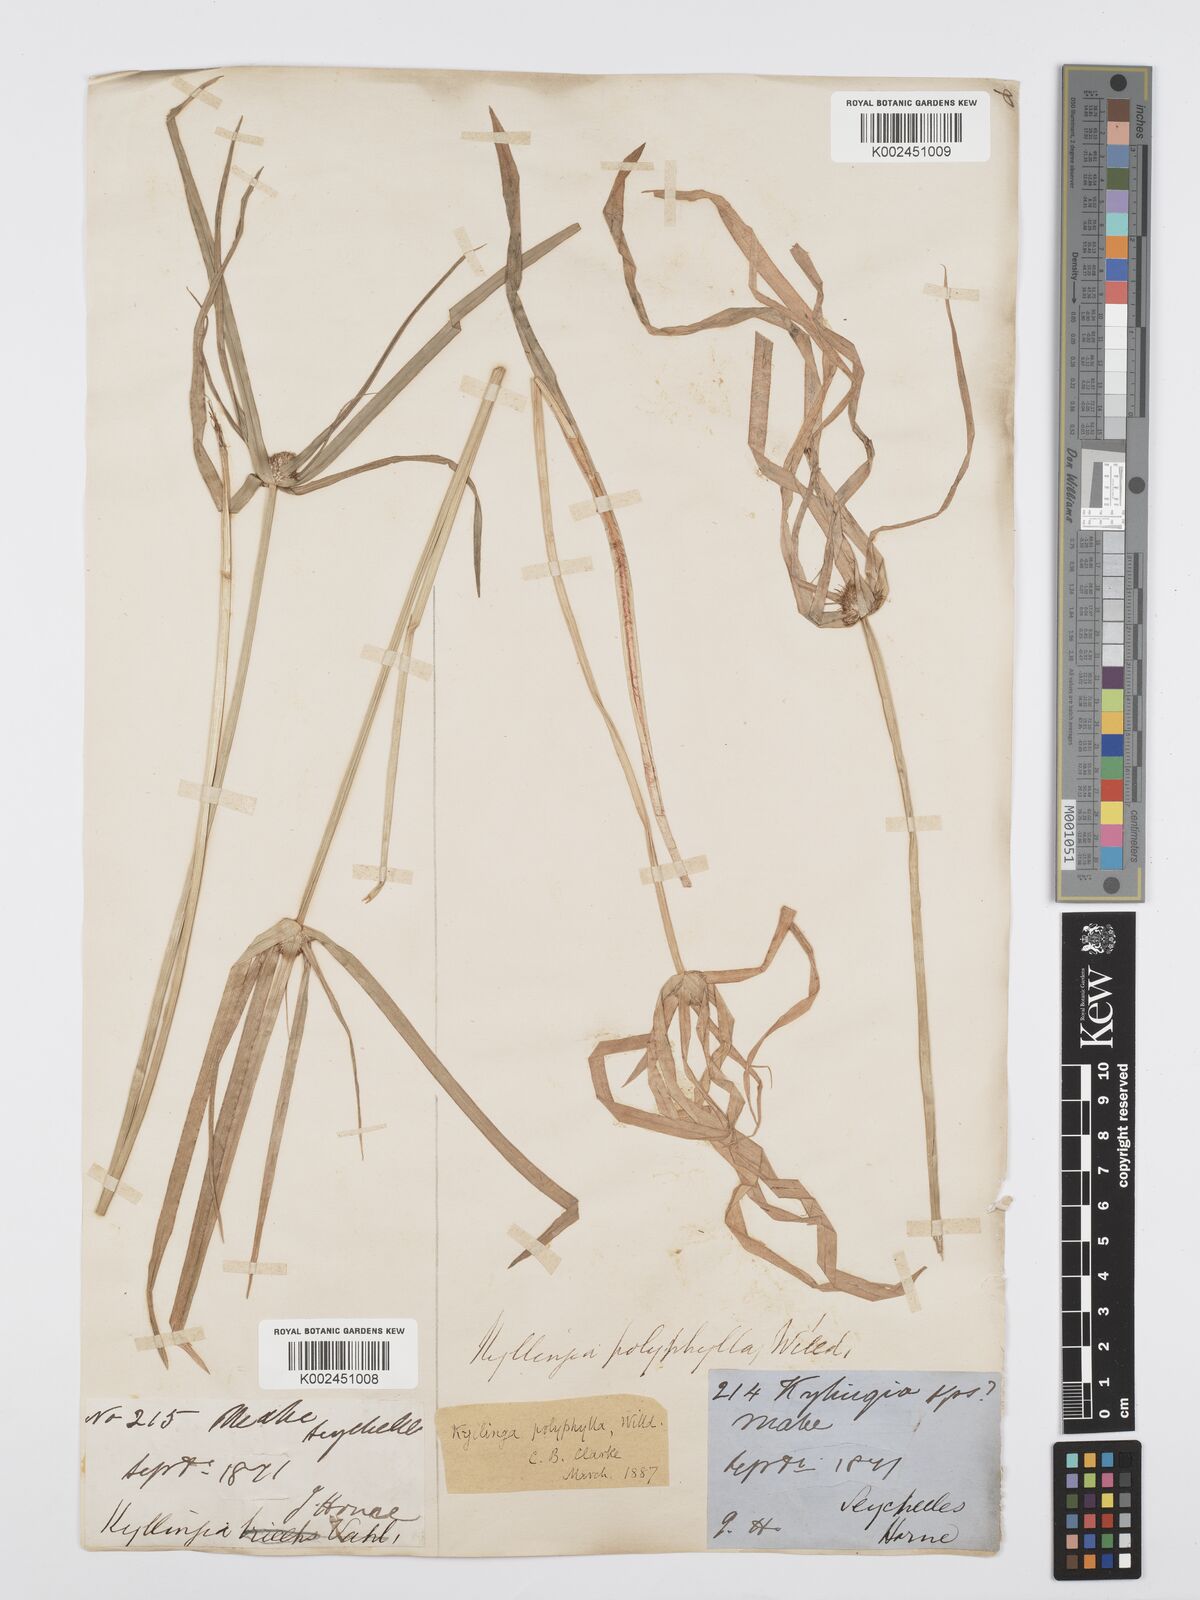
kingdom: Plantae
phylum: Tracheophyta
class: Liliopsida
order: Poales
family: Cyperaceae
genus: Cyperus
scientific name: Cyperus bulbosus
